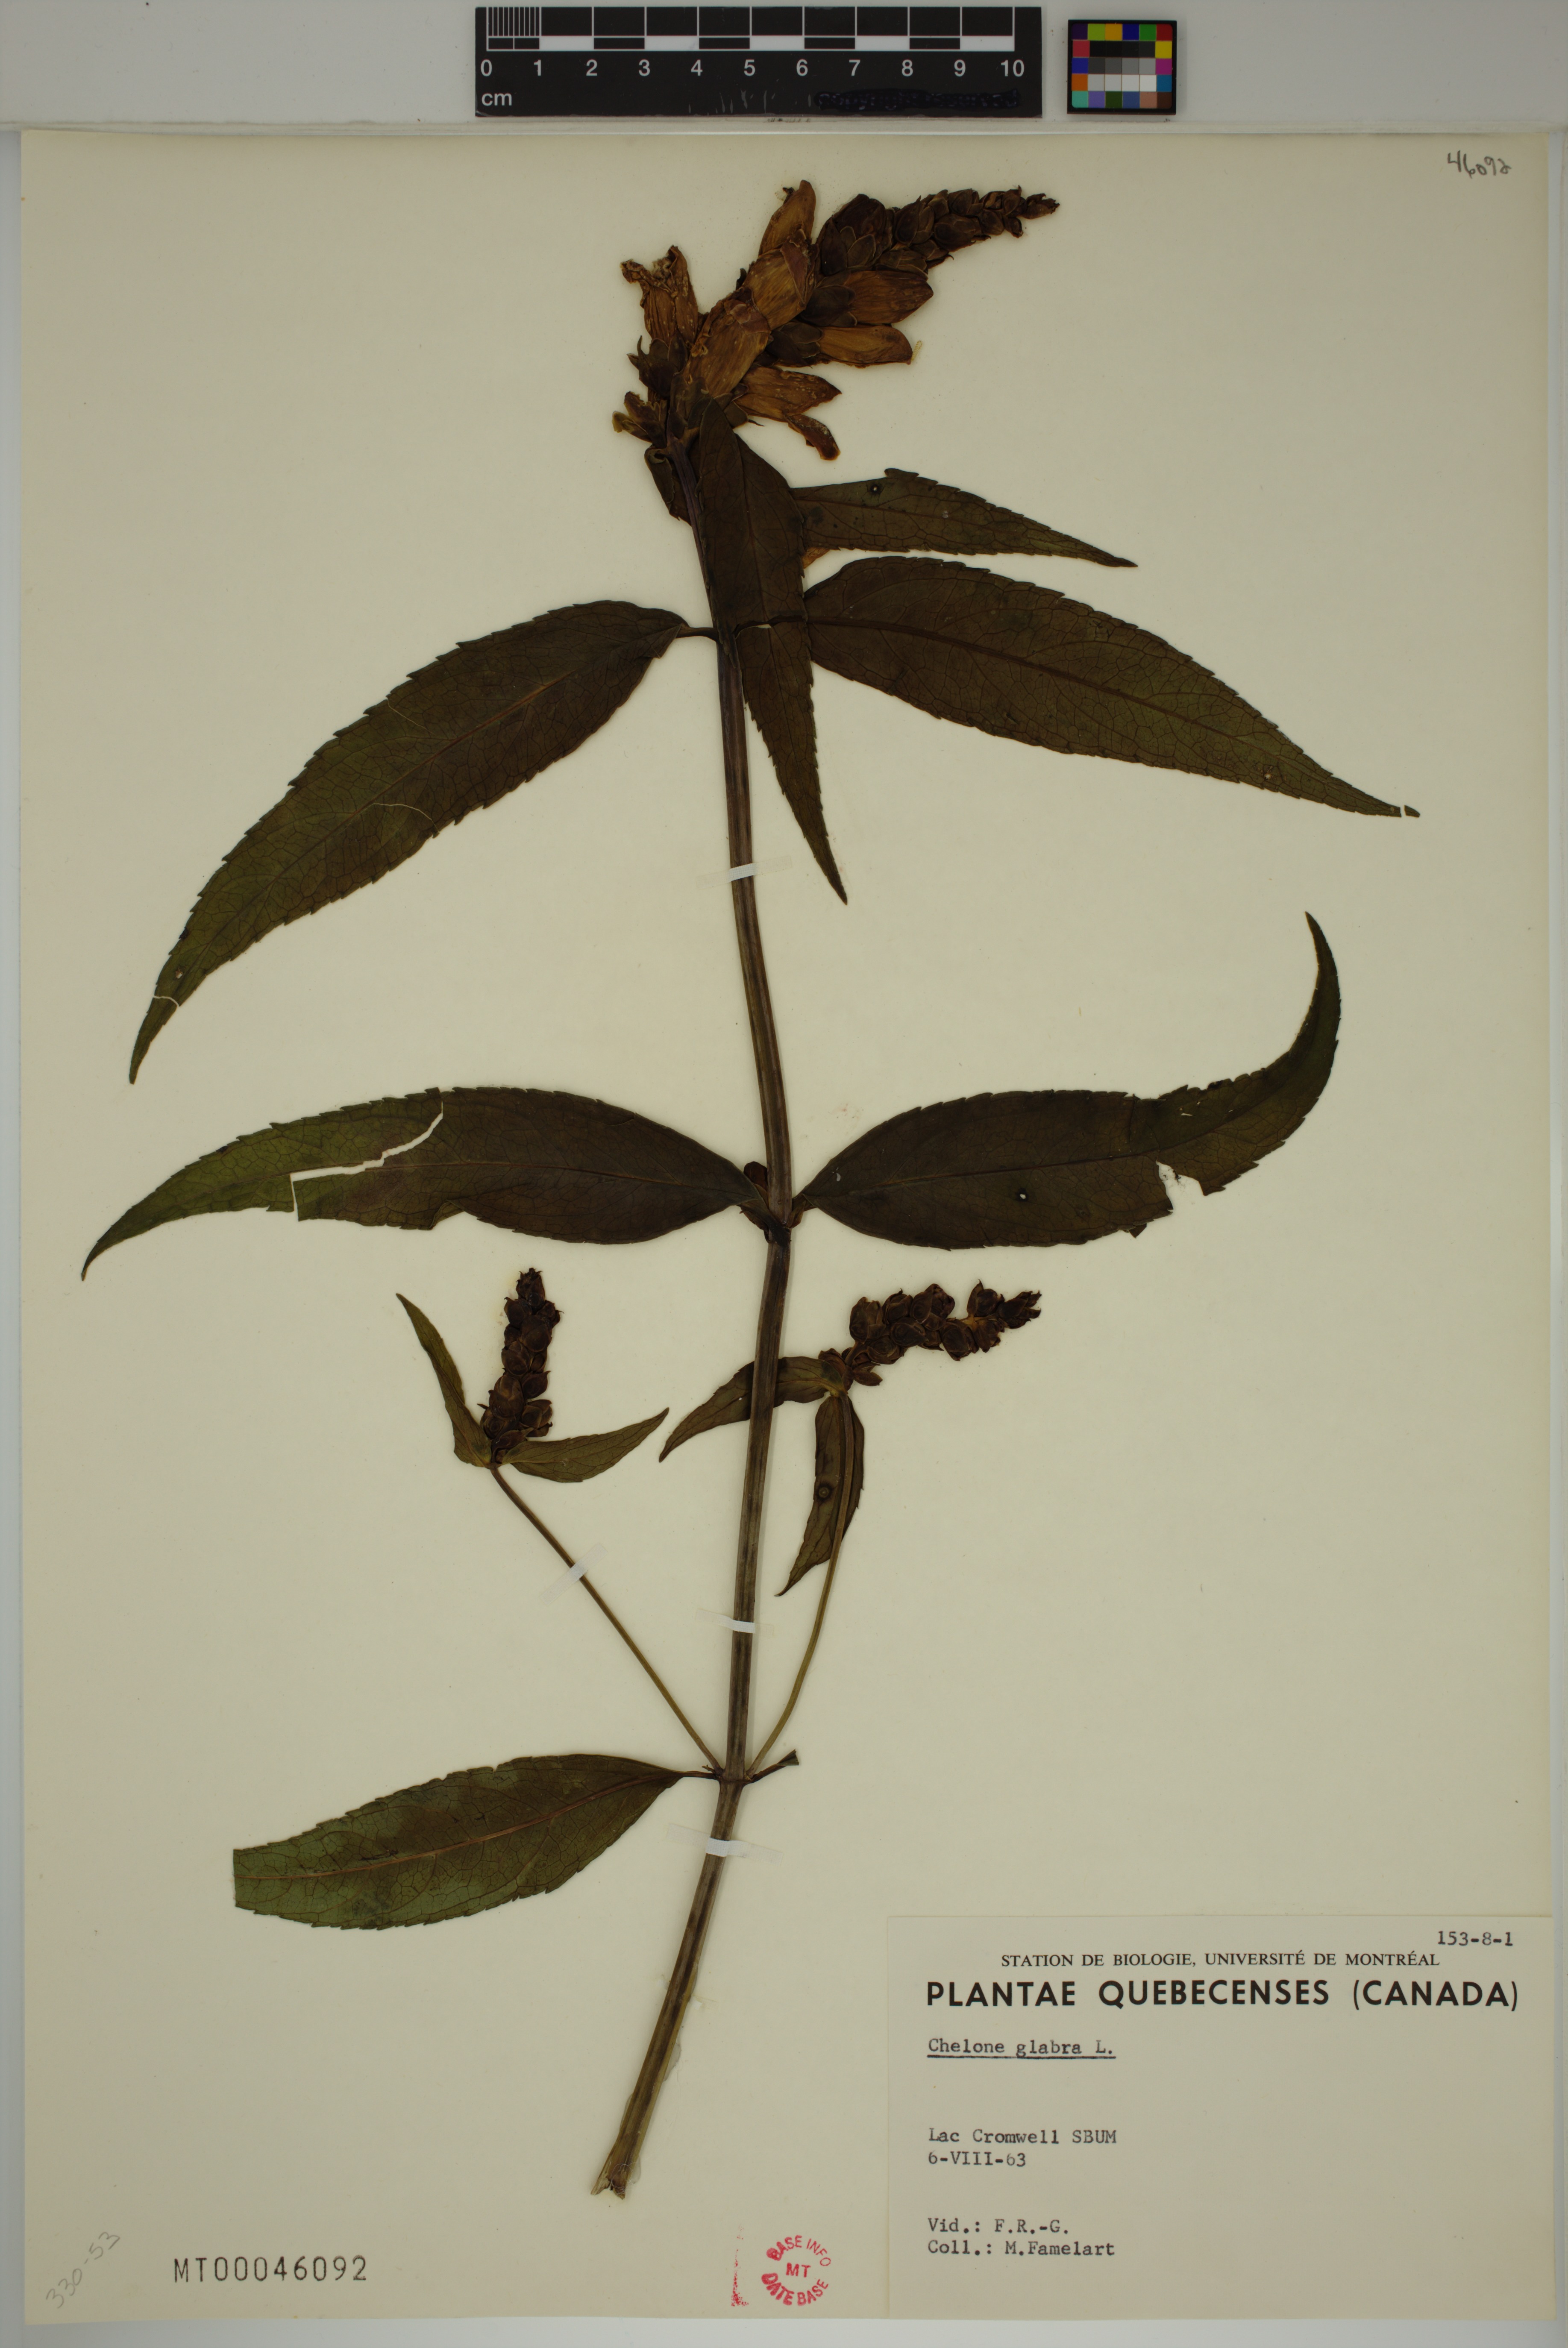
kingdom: Plantae
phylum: Tracheophyta
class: Magnoliopsida
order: Lamiales
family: Plantaginaceae
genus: Chelone
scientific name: Chelone glabra
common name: Snakehead
